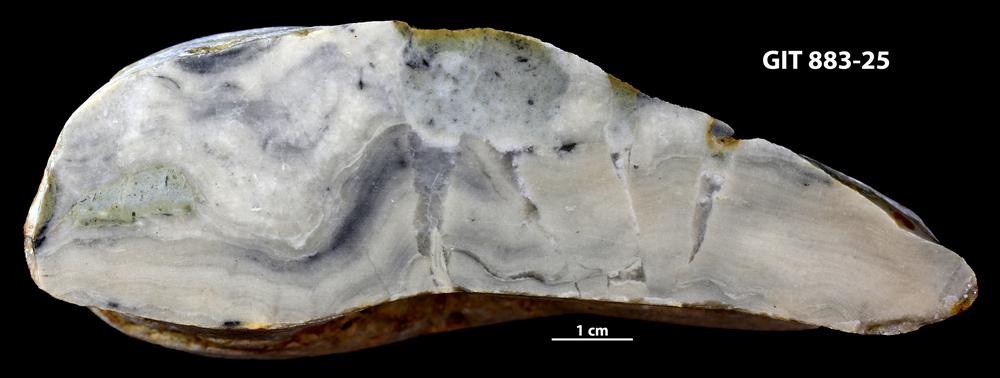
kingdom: Animalia
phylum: Porifera
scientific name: Porifera
